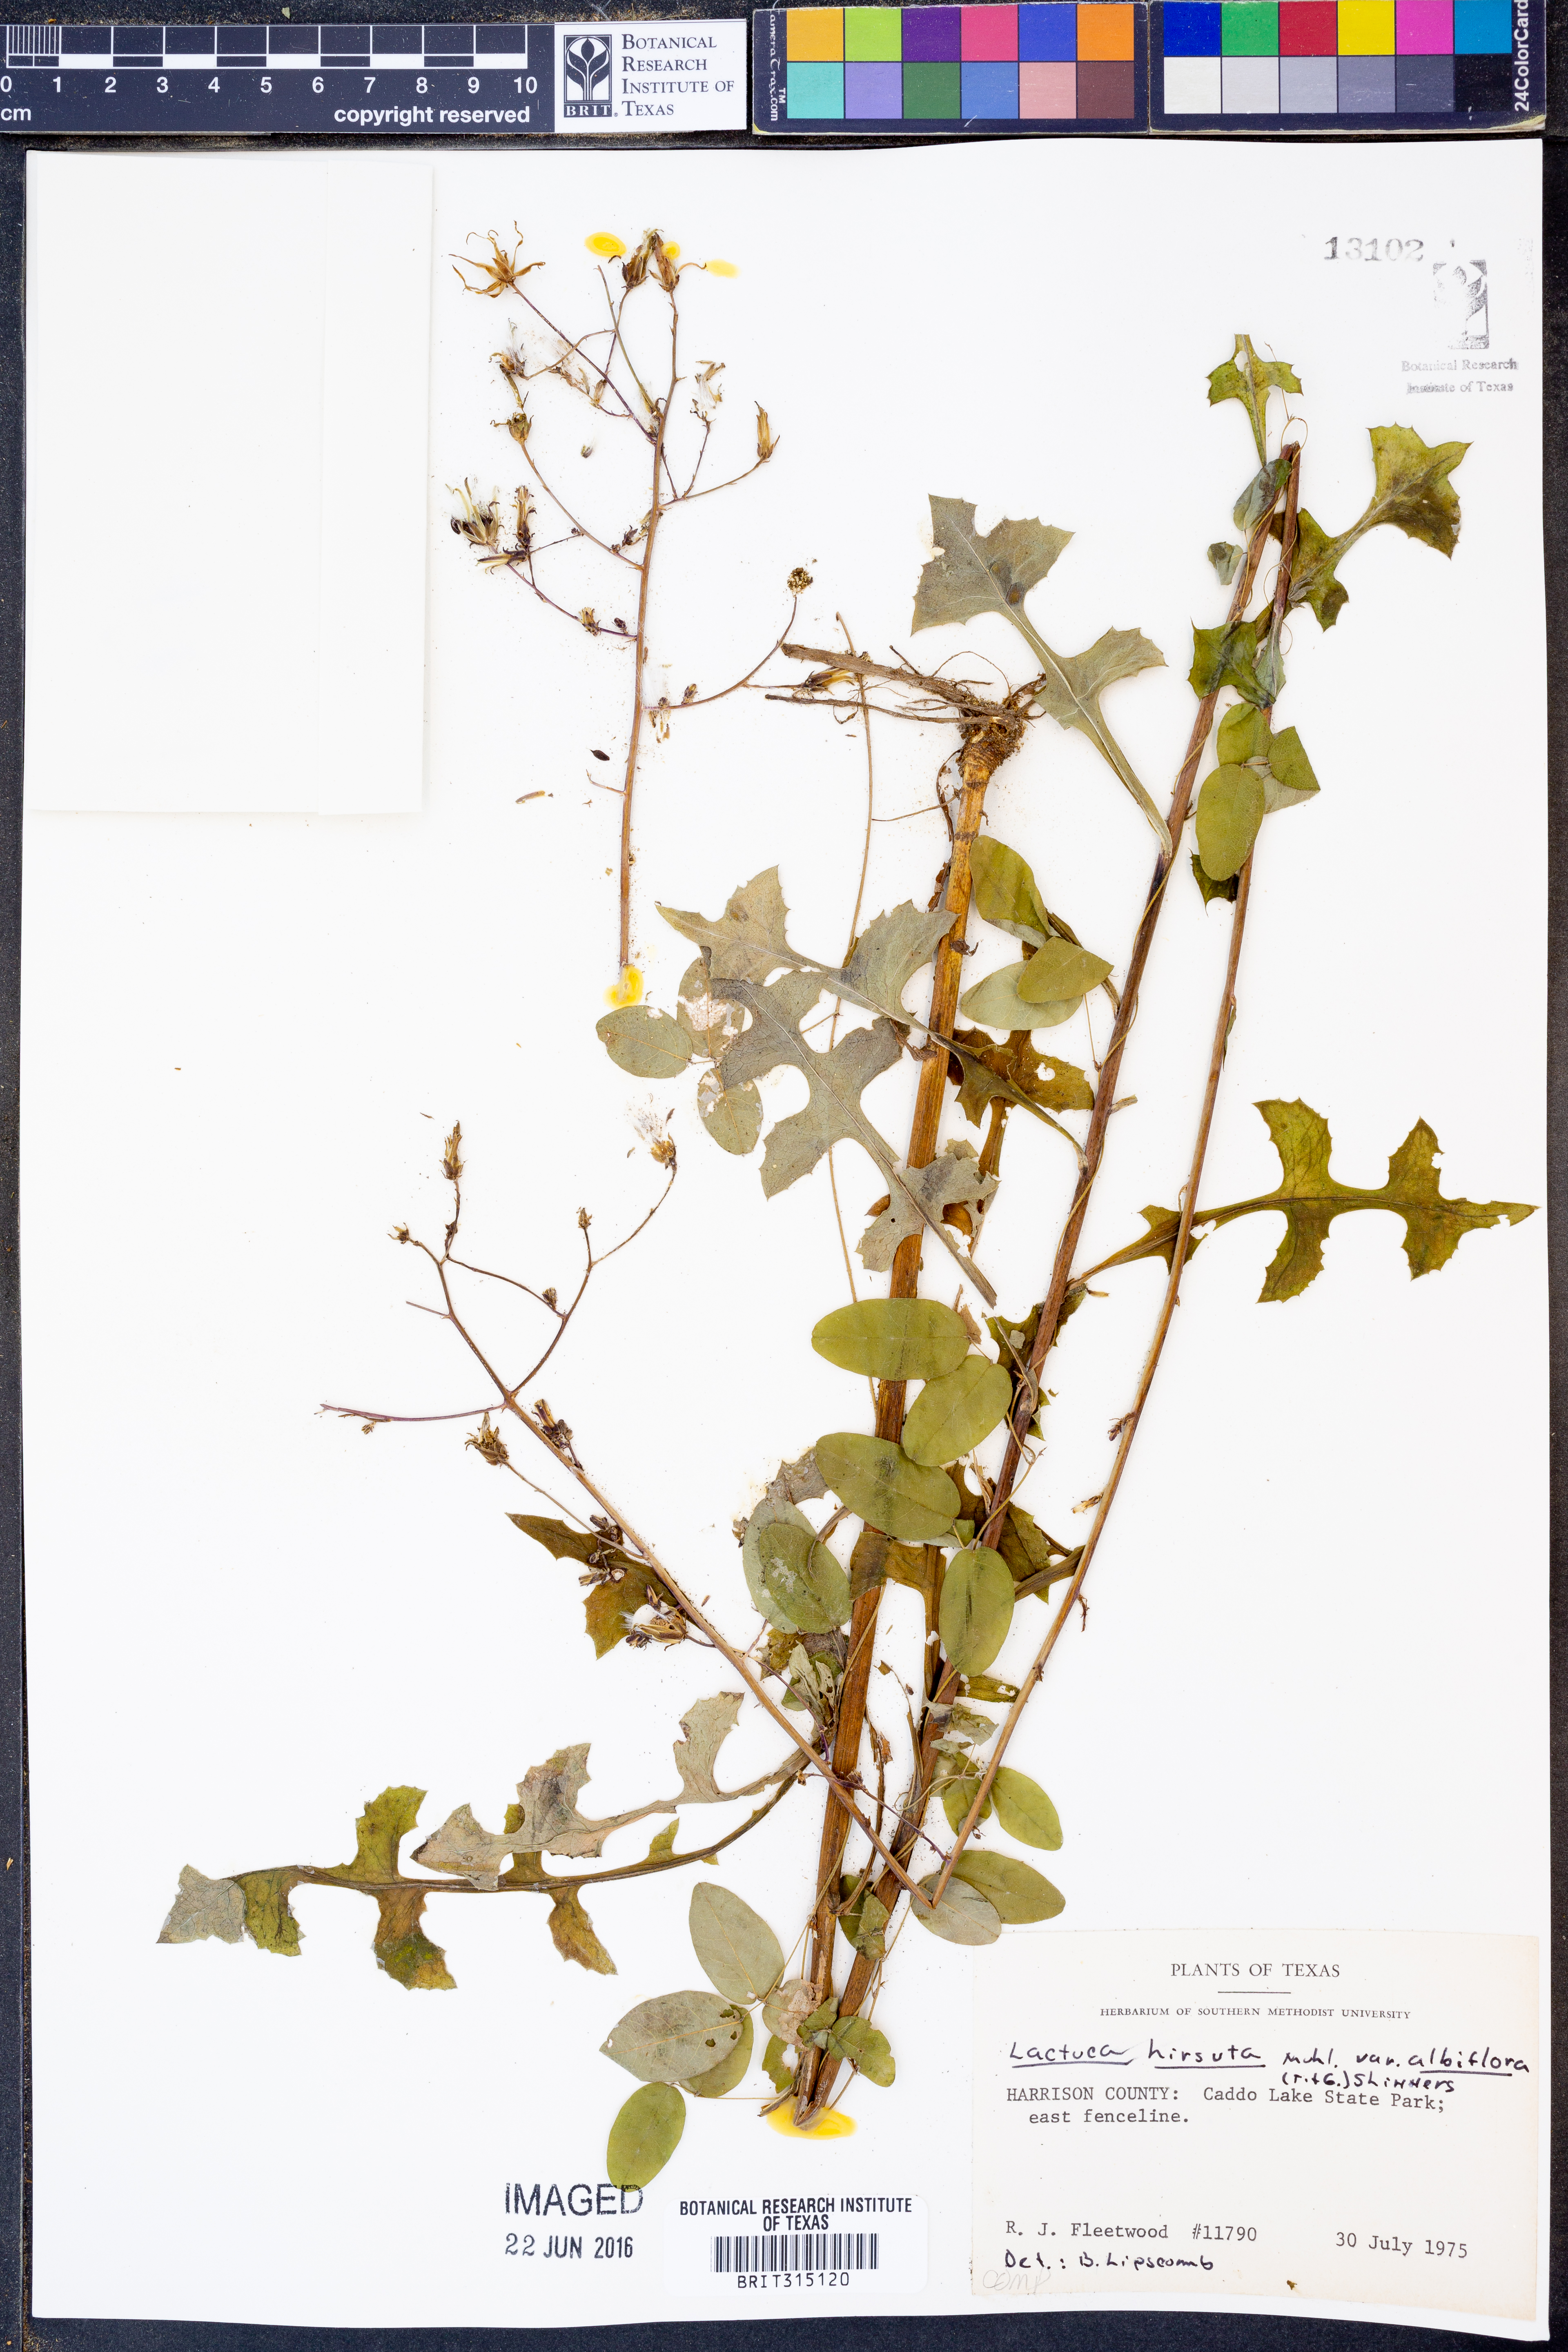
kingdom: Plantae
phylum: Tracheophyta
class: Magnoliopsida
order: Asterales
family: Asteraceae
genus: Lactuca
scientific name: Lactuca hirsuta
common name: Hairy lettuce
